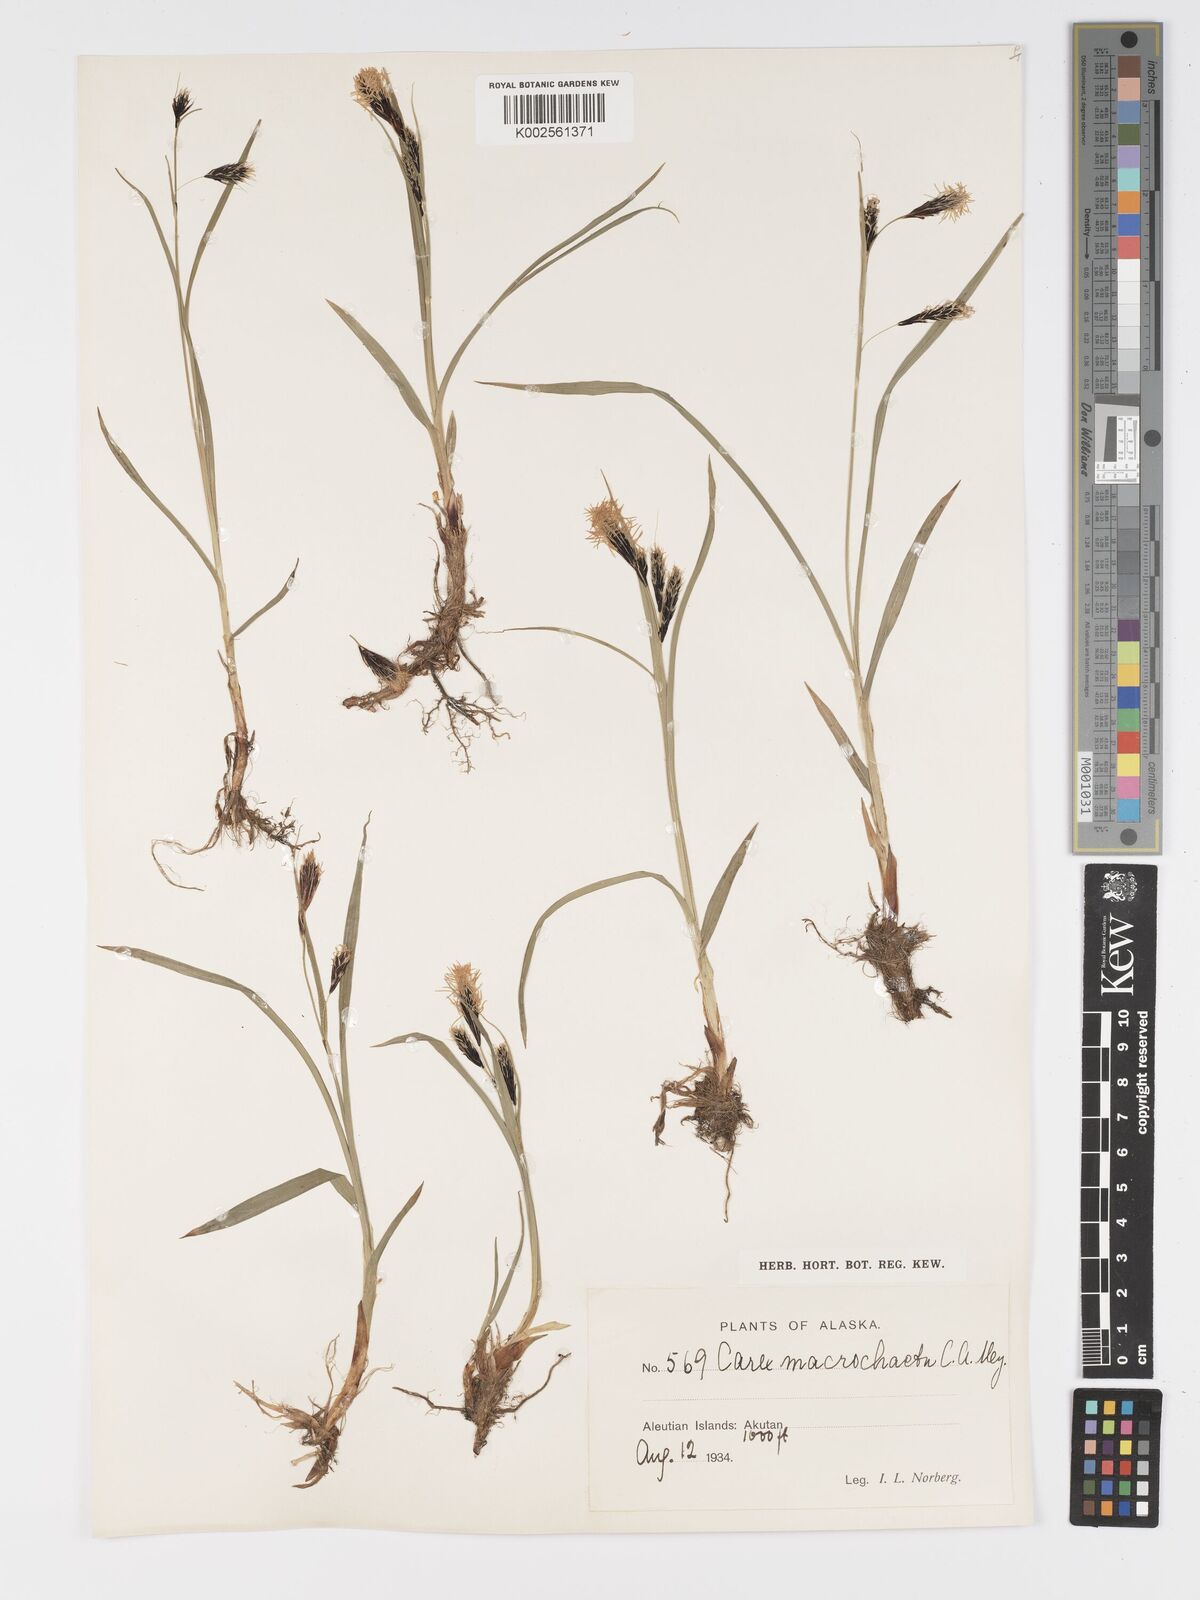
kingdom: Plantae
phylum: Tracheophyta
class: Liliopsida
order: Poales
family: Cyperaceae
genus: Carex
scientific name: Carex macrochaeta
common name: Alaska large awn sedge
